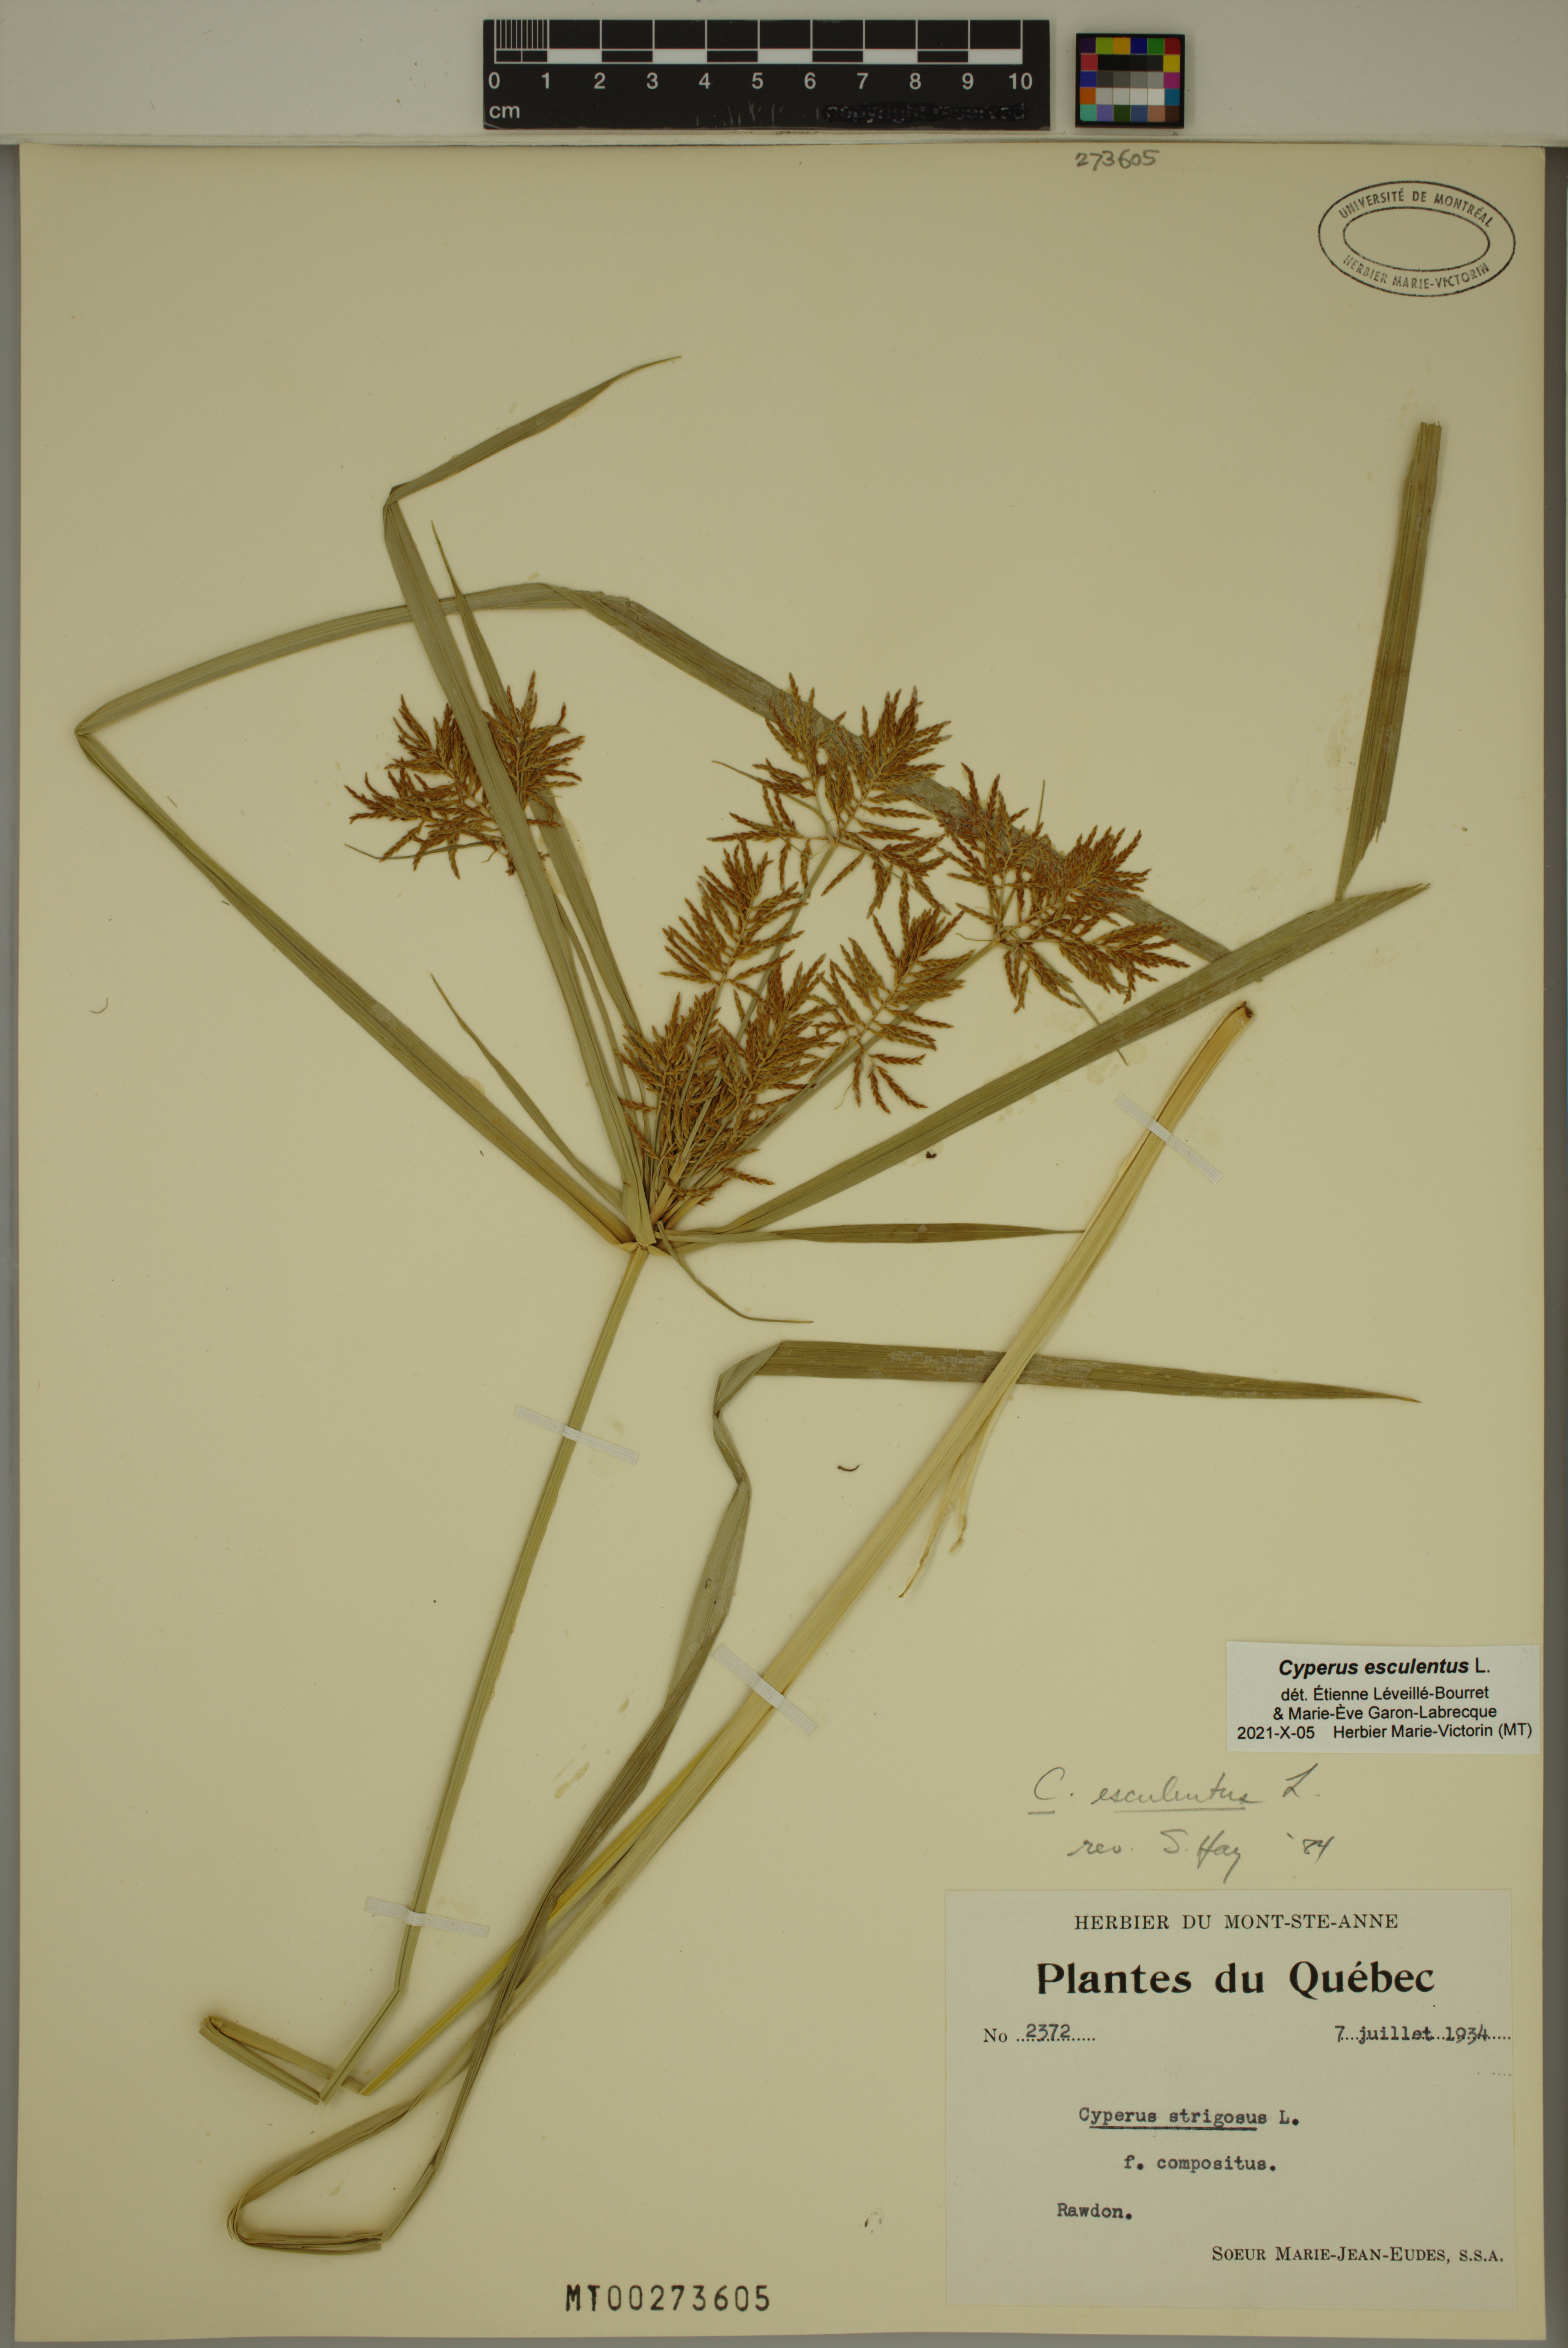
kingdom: Plantae
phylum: Tracheophyta
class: Liliopsida
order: Poales
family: Cyperaceae
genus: Cyperus
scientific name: Cyperus esculentus
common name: Yellow nutsedge
